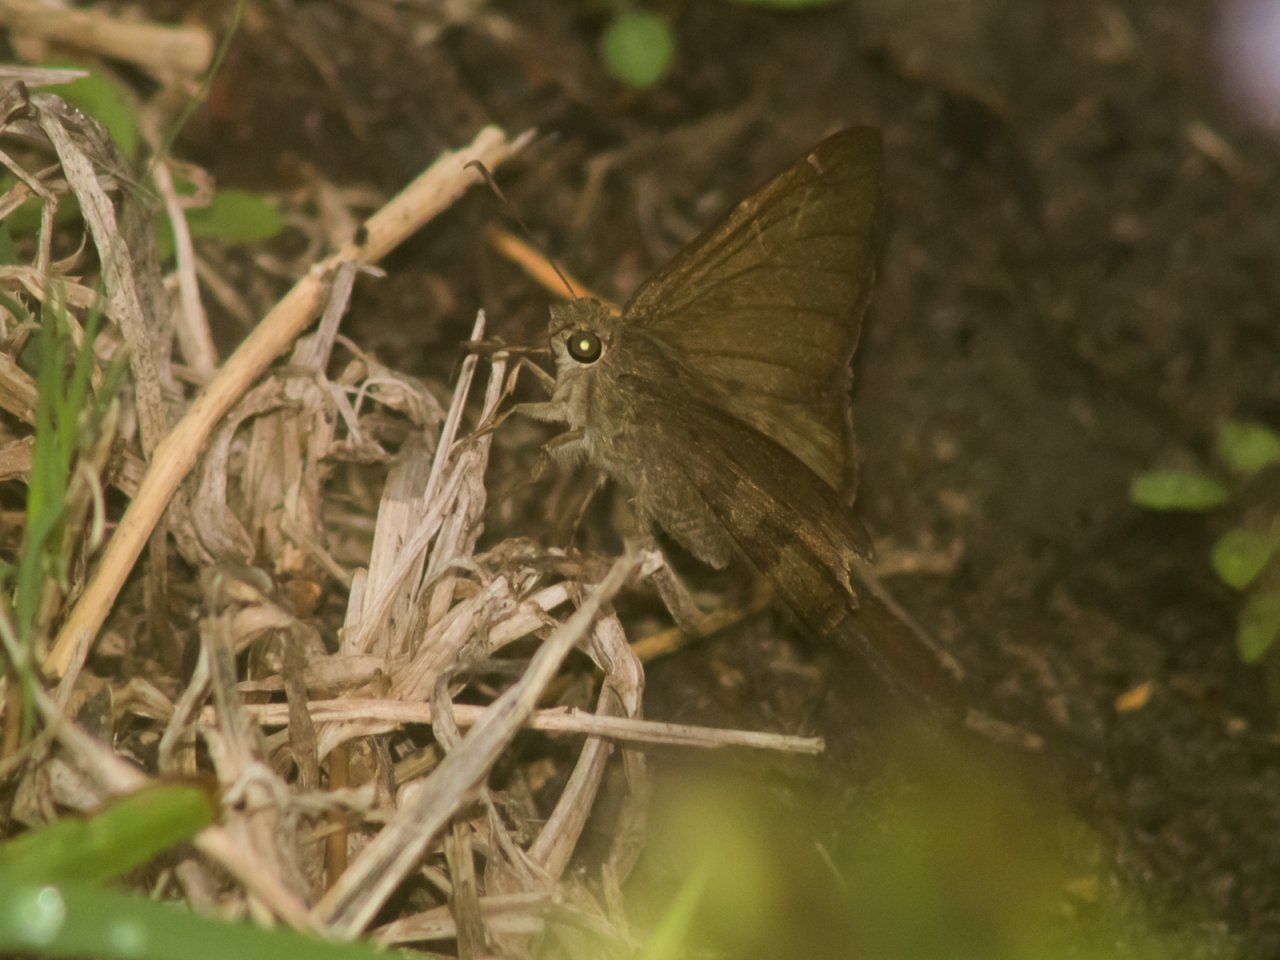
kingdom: Animalia
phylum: Arthropoda
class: Insecta
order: Lepidoptera
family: Hesperiidae
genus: Urbanus
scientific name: Urbanus procne
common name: Brown Longtail
